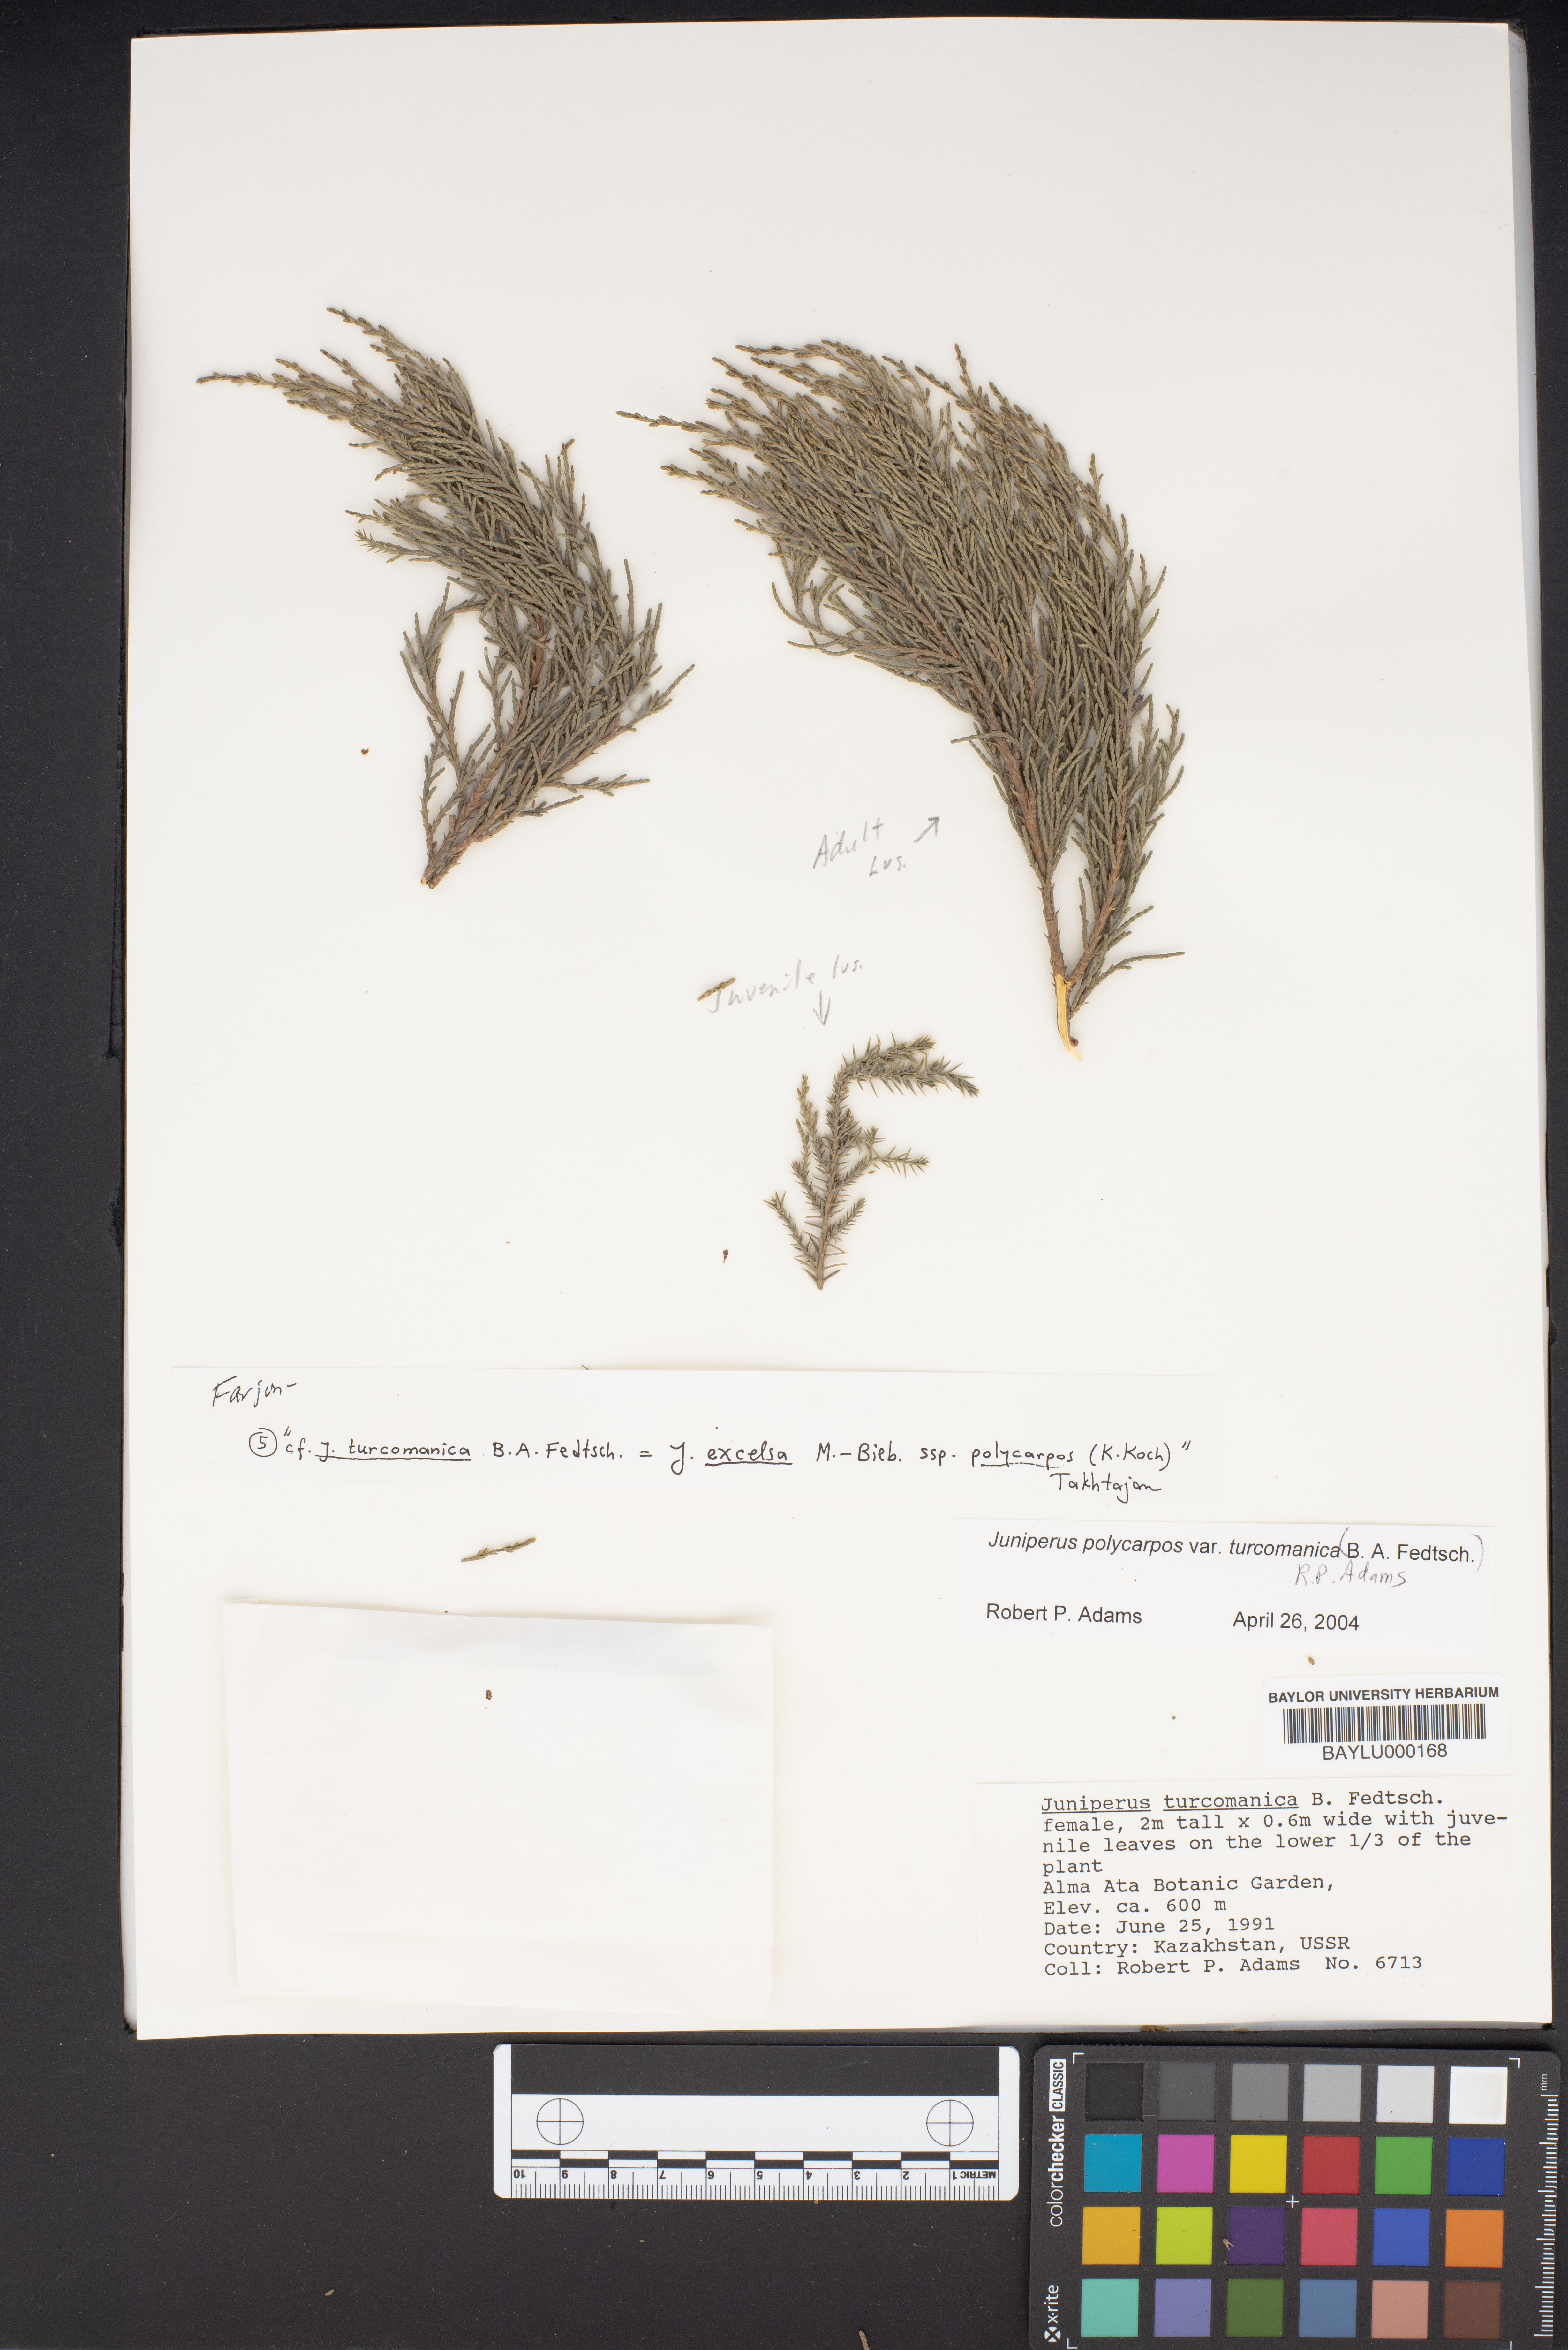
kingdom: Plantae
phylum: Tracheophyta
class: Pinopsida
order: Pinales
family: Cupressaceae
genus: Juniperus
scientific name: Juniperus excelsa
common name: Crimean juniper
